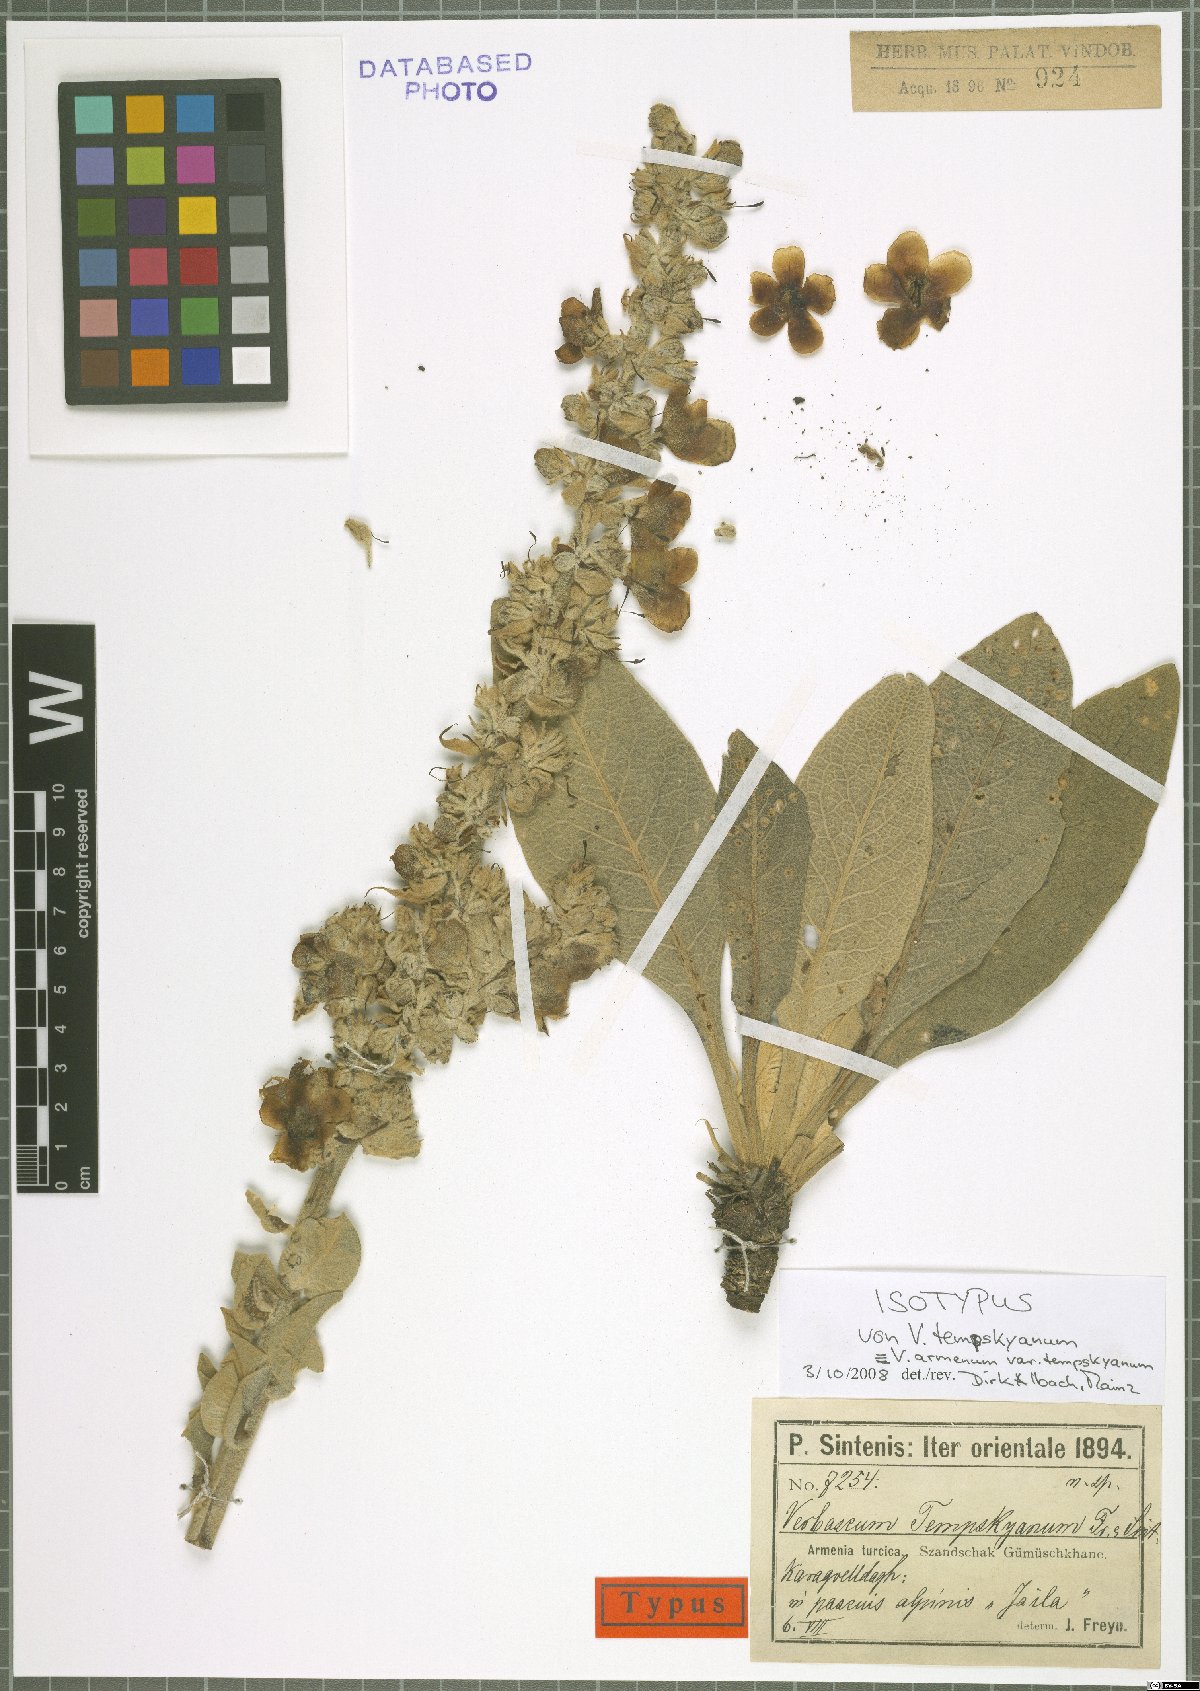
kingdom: Plantae
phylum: Tracheophyta
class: Magnoliopsida
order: Lamiales
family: Scrophulariaceae
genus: Verbascum
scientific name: Verbascum armenum
